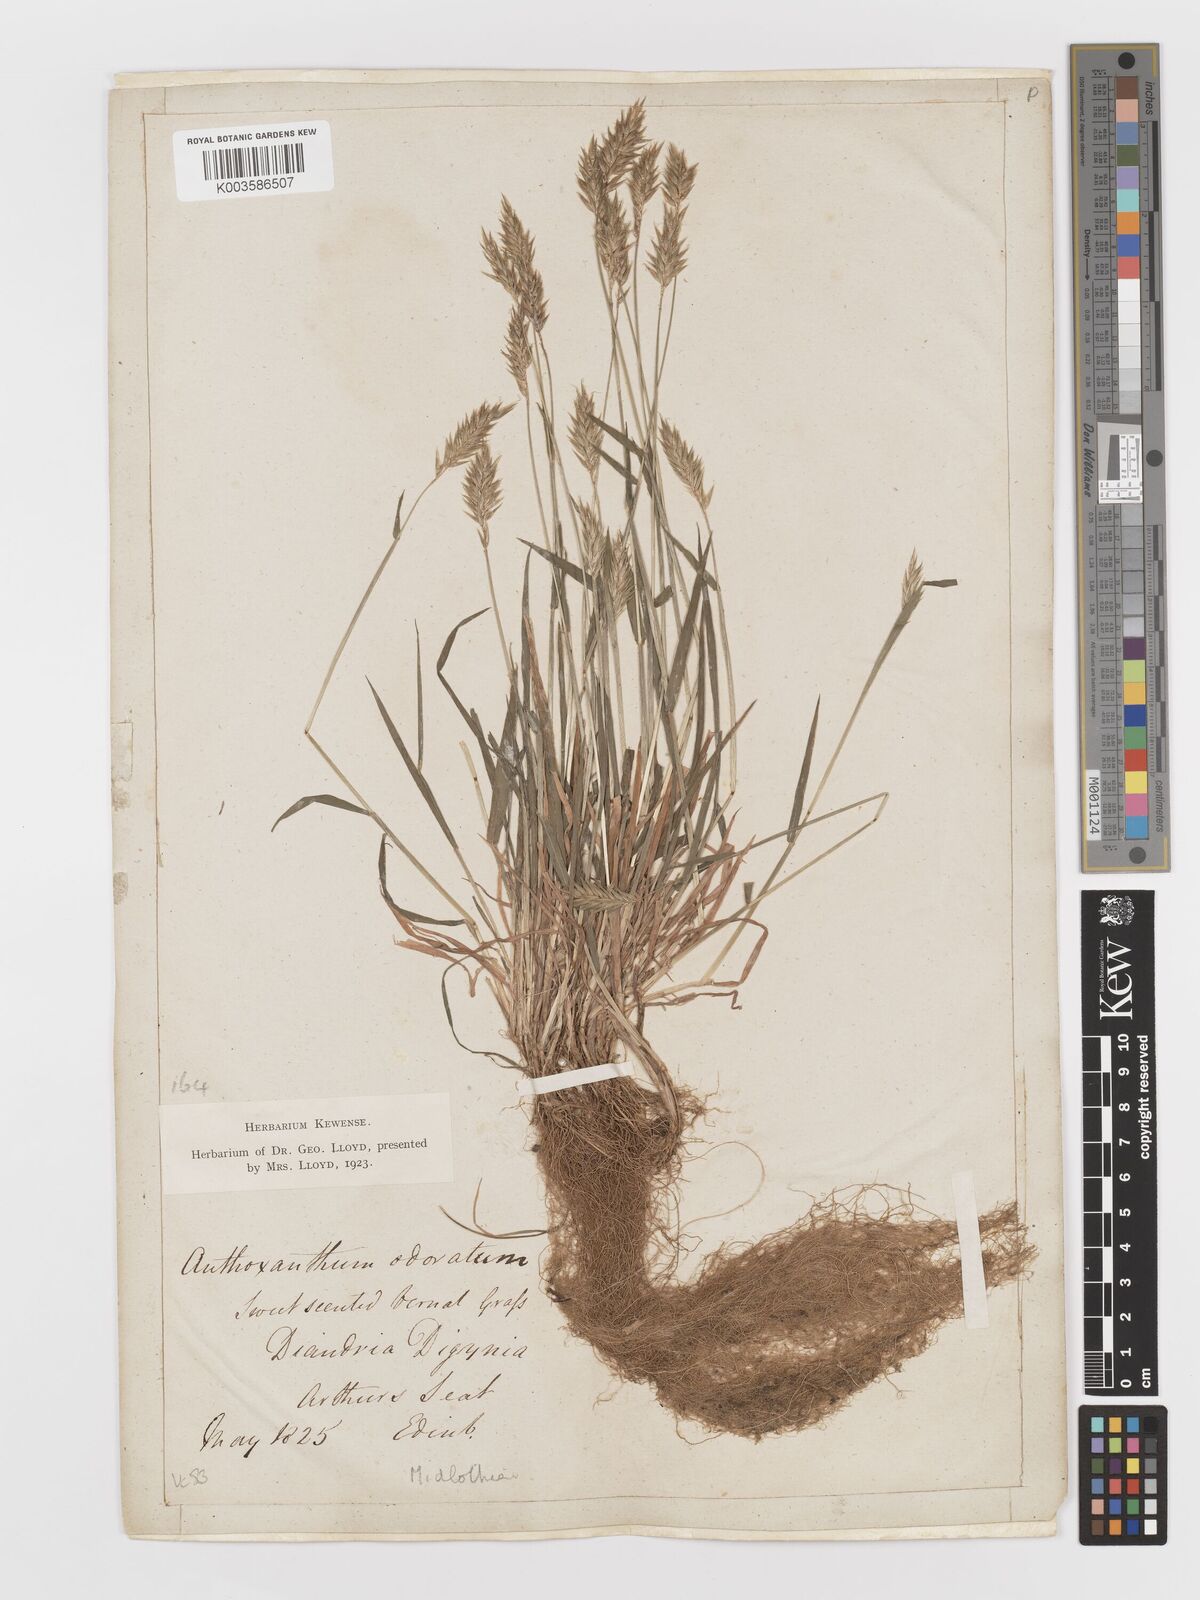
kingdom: Plantae
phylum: Tracheophyta
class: Liliopsida
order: Poales
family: Poaceae
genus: Anthoxanthum
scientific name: Anthoxanthum odoratum
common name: Sweet vernalgrass
